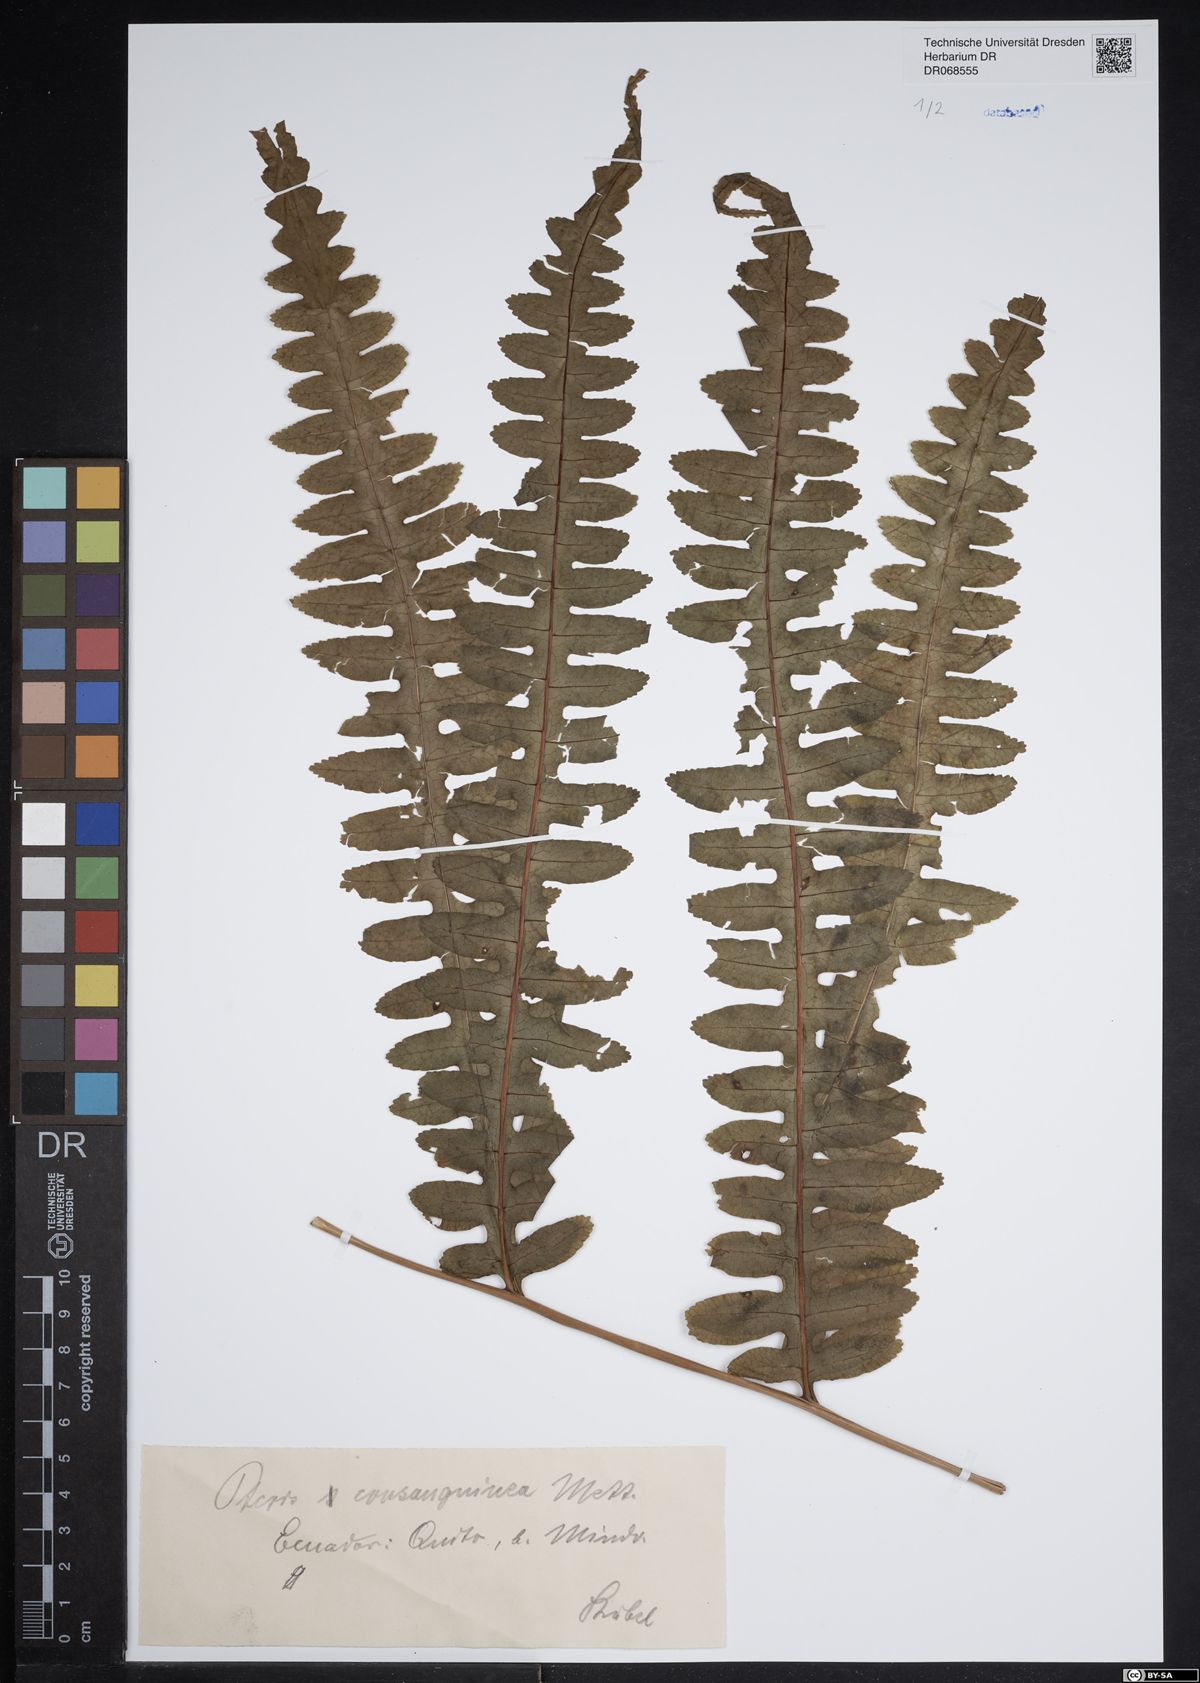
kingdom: Plantae
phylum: Tracheophyta
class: Polypodiopsida
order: Polypodiales
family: Pteridaceae
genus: Pteris
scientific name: Pteris consanguinea
